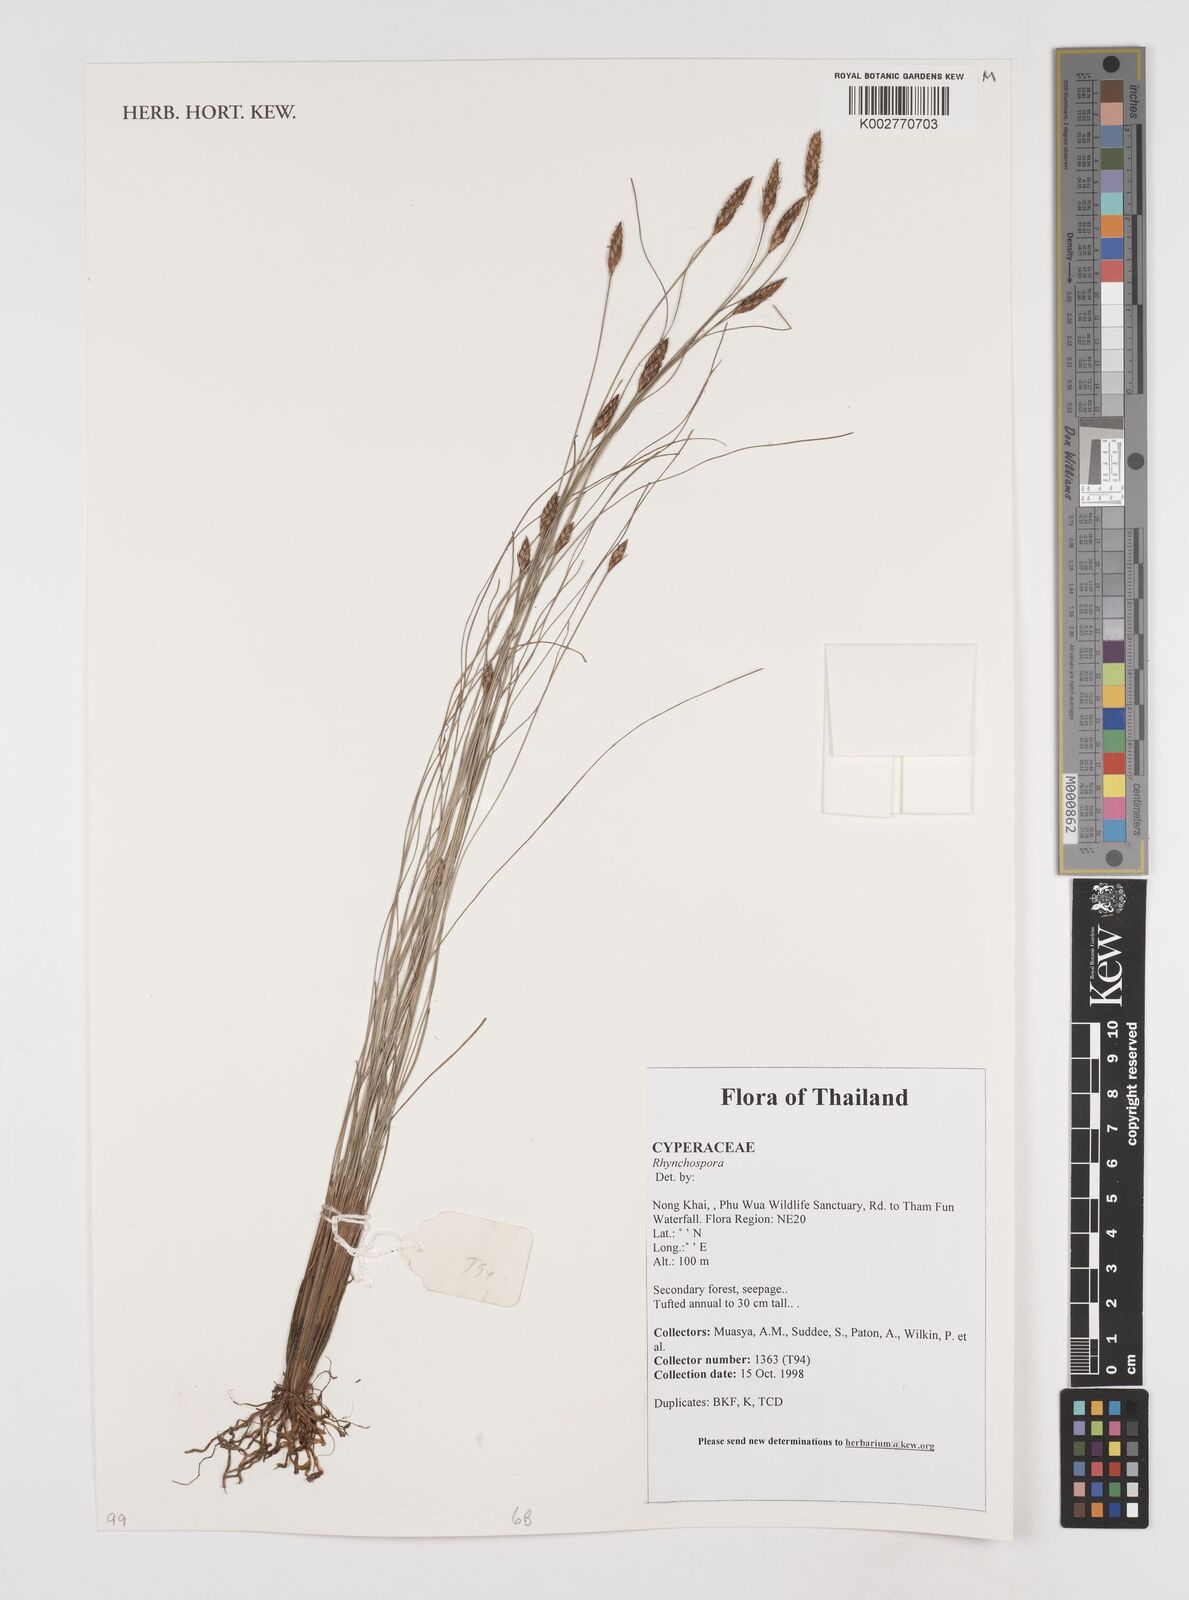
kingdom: Plantae
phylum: Tracheophyta
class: Liliopsida
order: Poales
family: Cyperaceae
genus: Rhynchospora
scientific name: Rhynchospora
